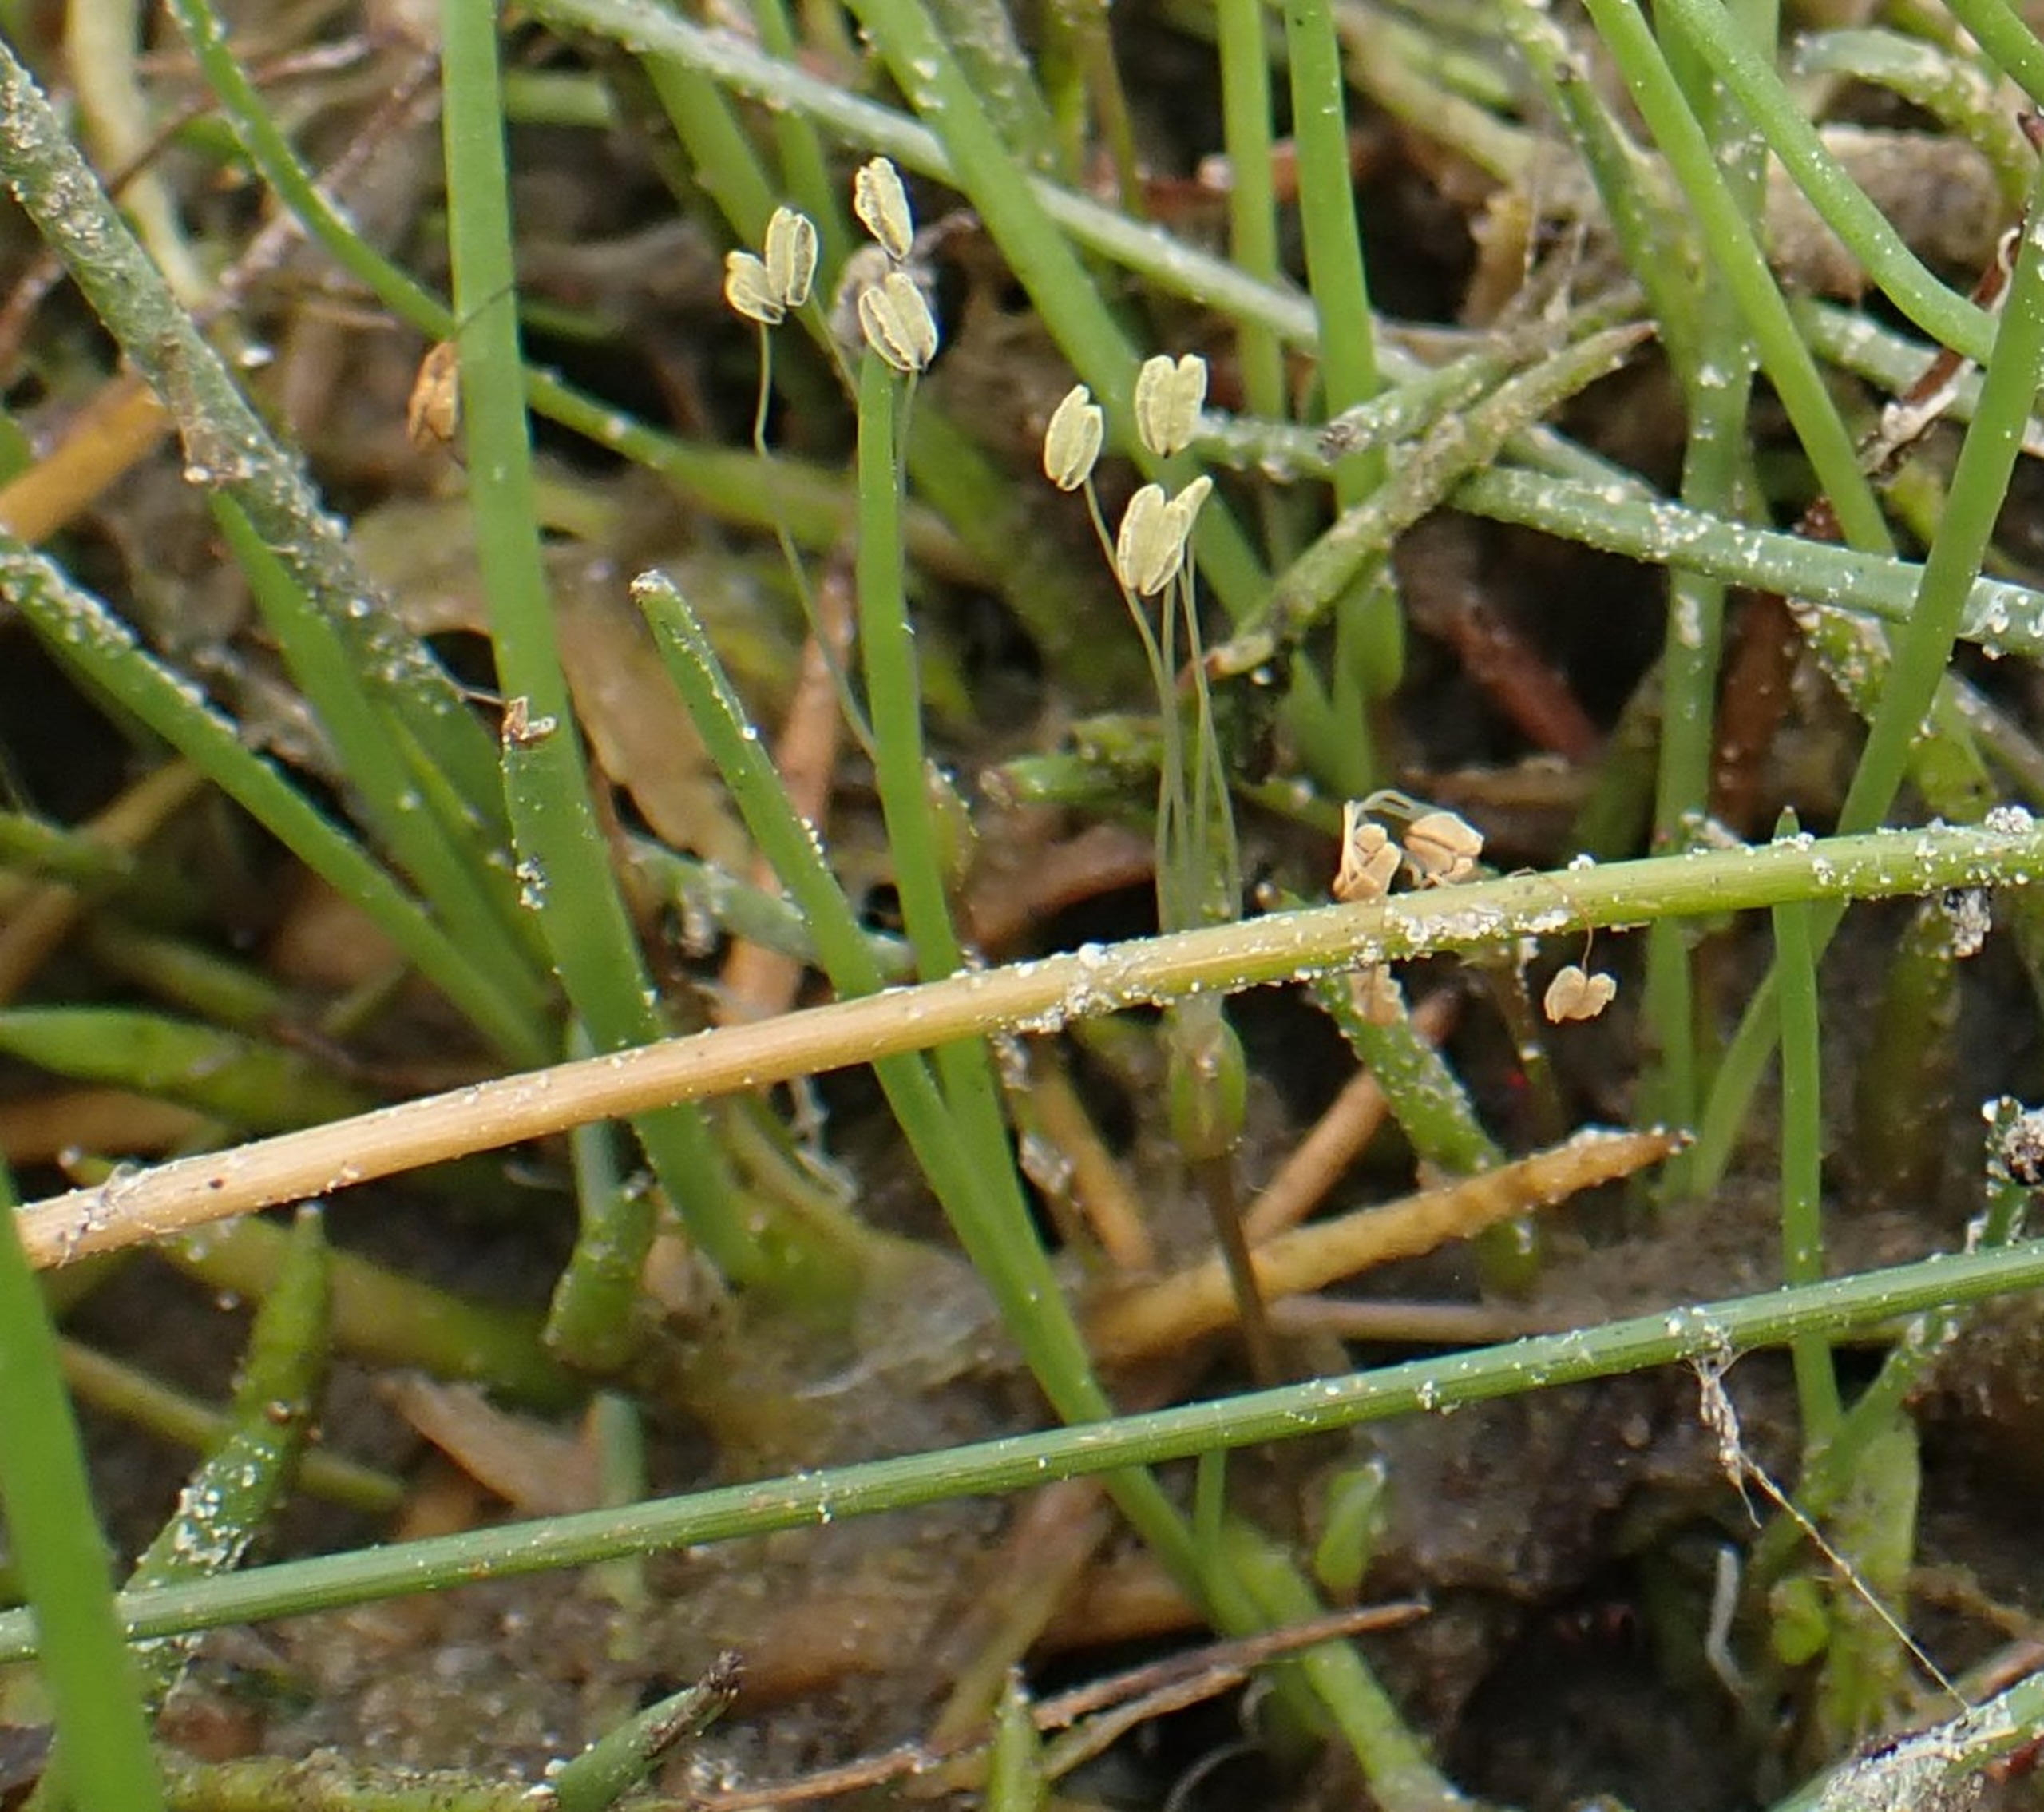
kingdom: Plantae
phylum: Tracheophyta
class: Magnoliopsida
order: Lamiales
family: Plantaginaceae
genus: Littorella
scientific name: Littorella uniflora
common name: Strandbo
